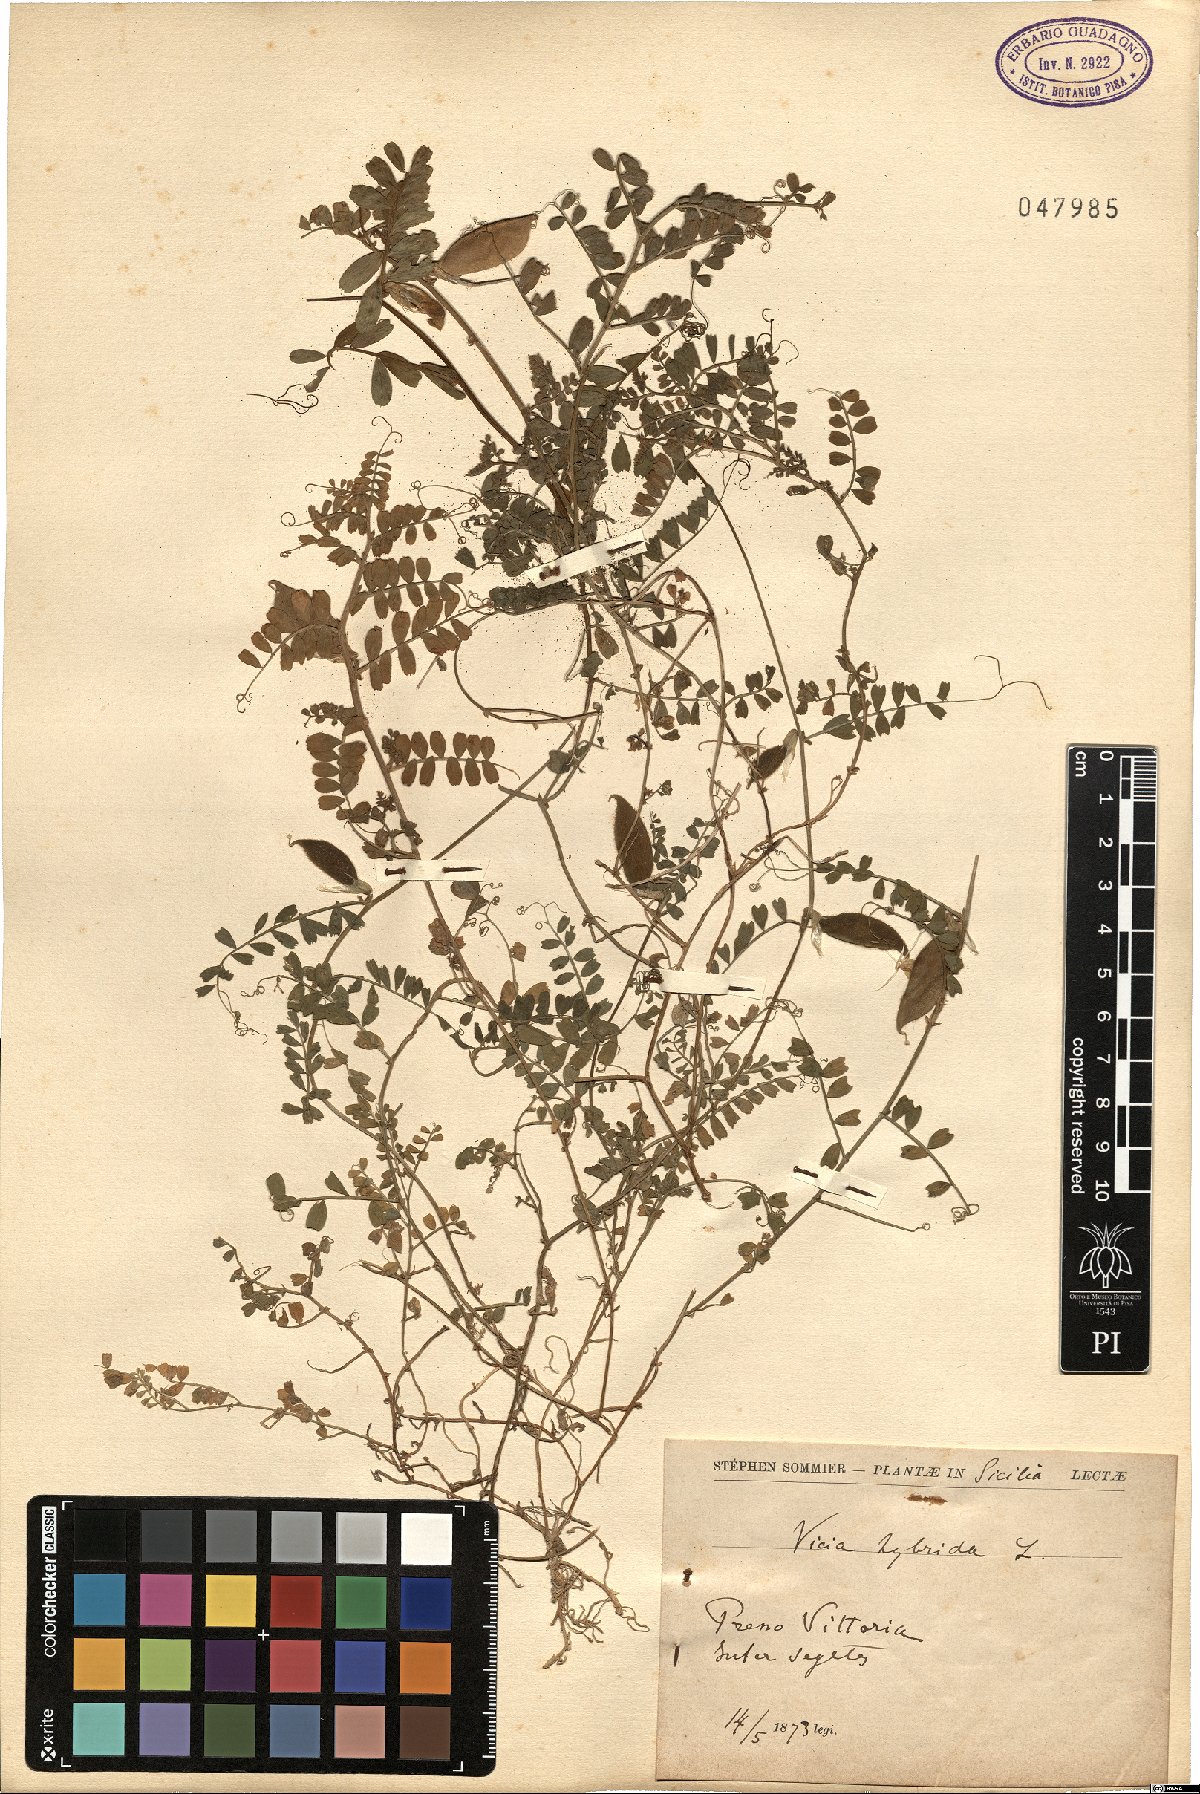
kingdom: Plantae
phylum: Tracheophyta
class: Magnoliopsida
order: Fabales
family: Fabaceae
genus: Vicia
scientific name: Vicia hybrida
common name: Hairy yellow vetch
